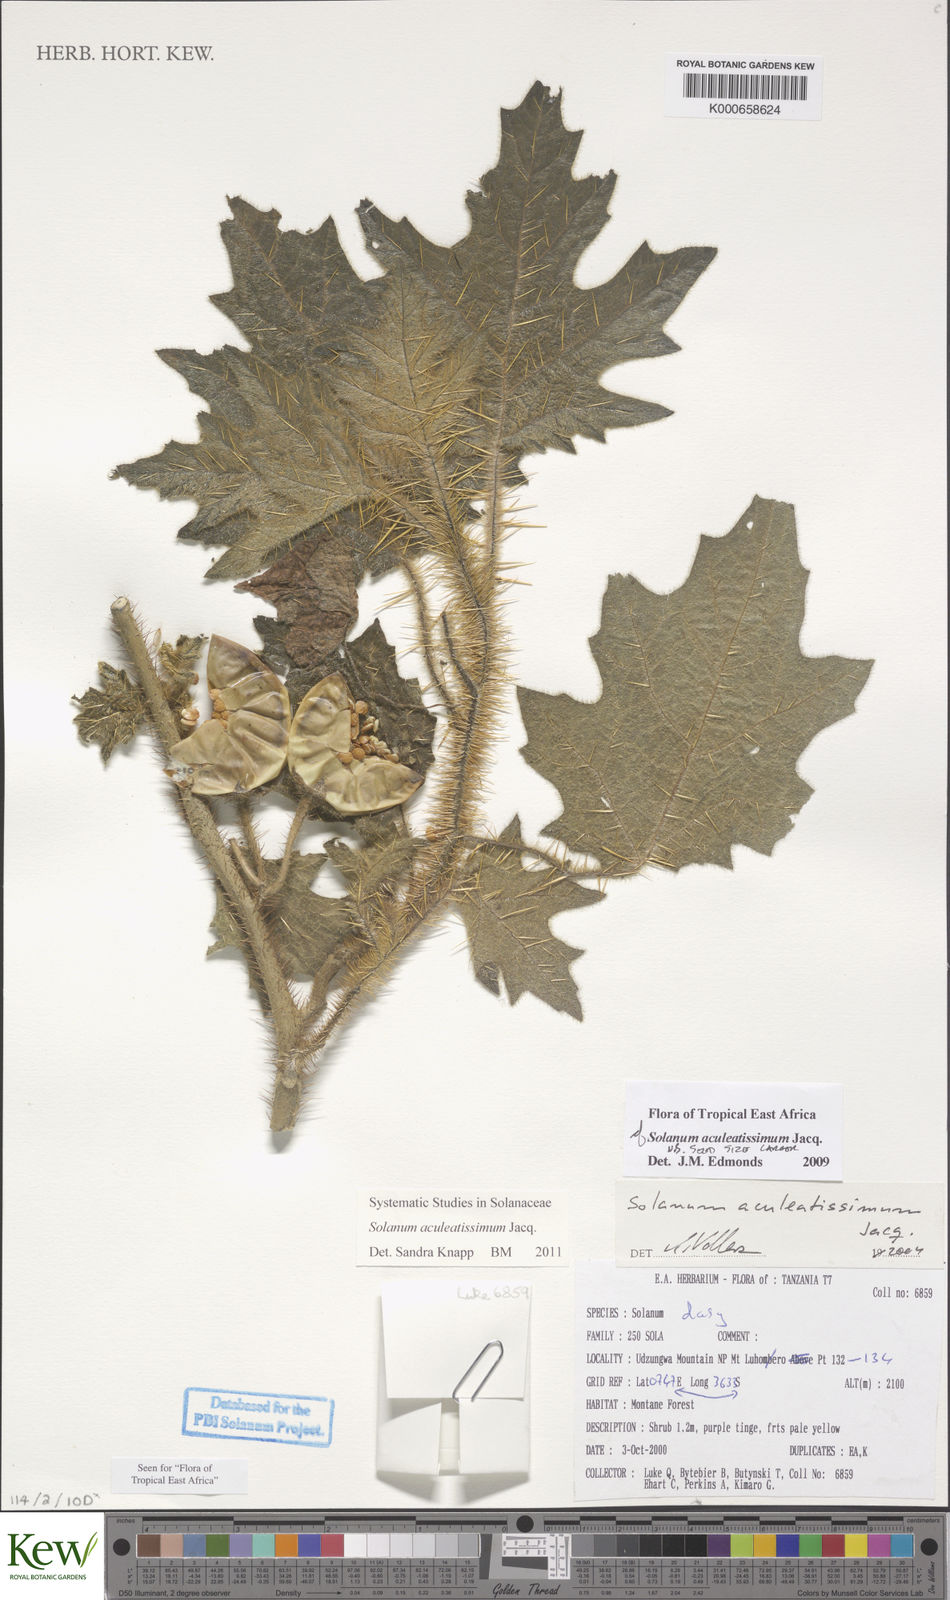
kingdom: Plantae
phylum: Tracheophyta
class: Magnoliopsida
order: Solanales
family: Solanaceae
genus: Solanum
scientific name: Solanum aculeatissimum
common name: Dutch eggplant
